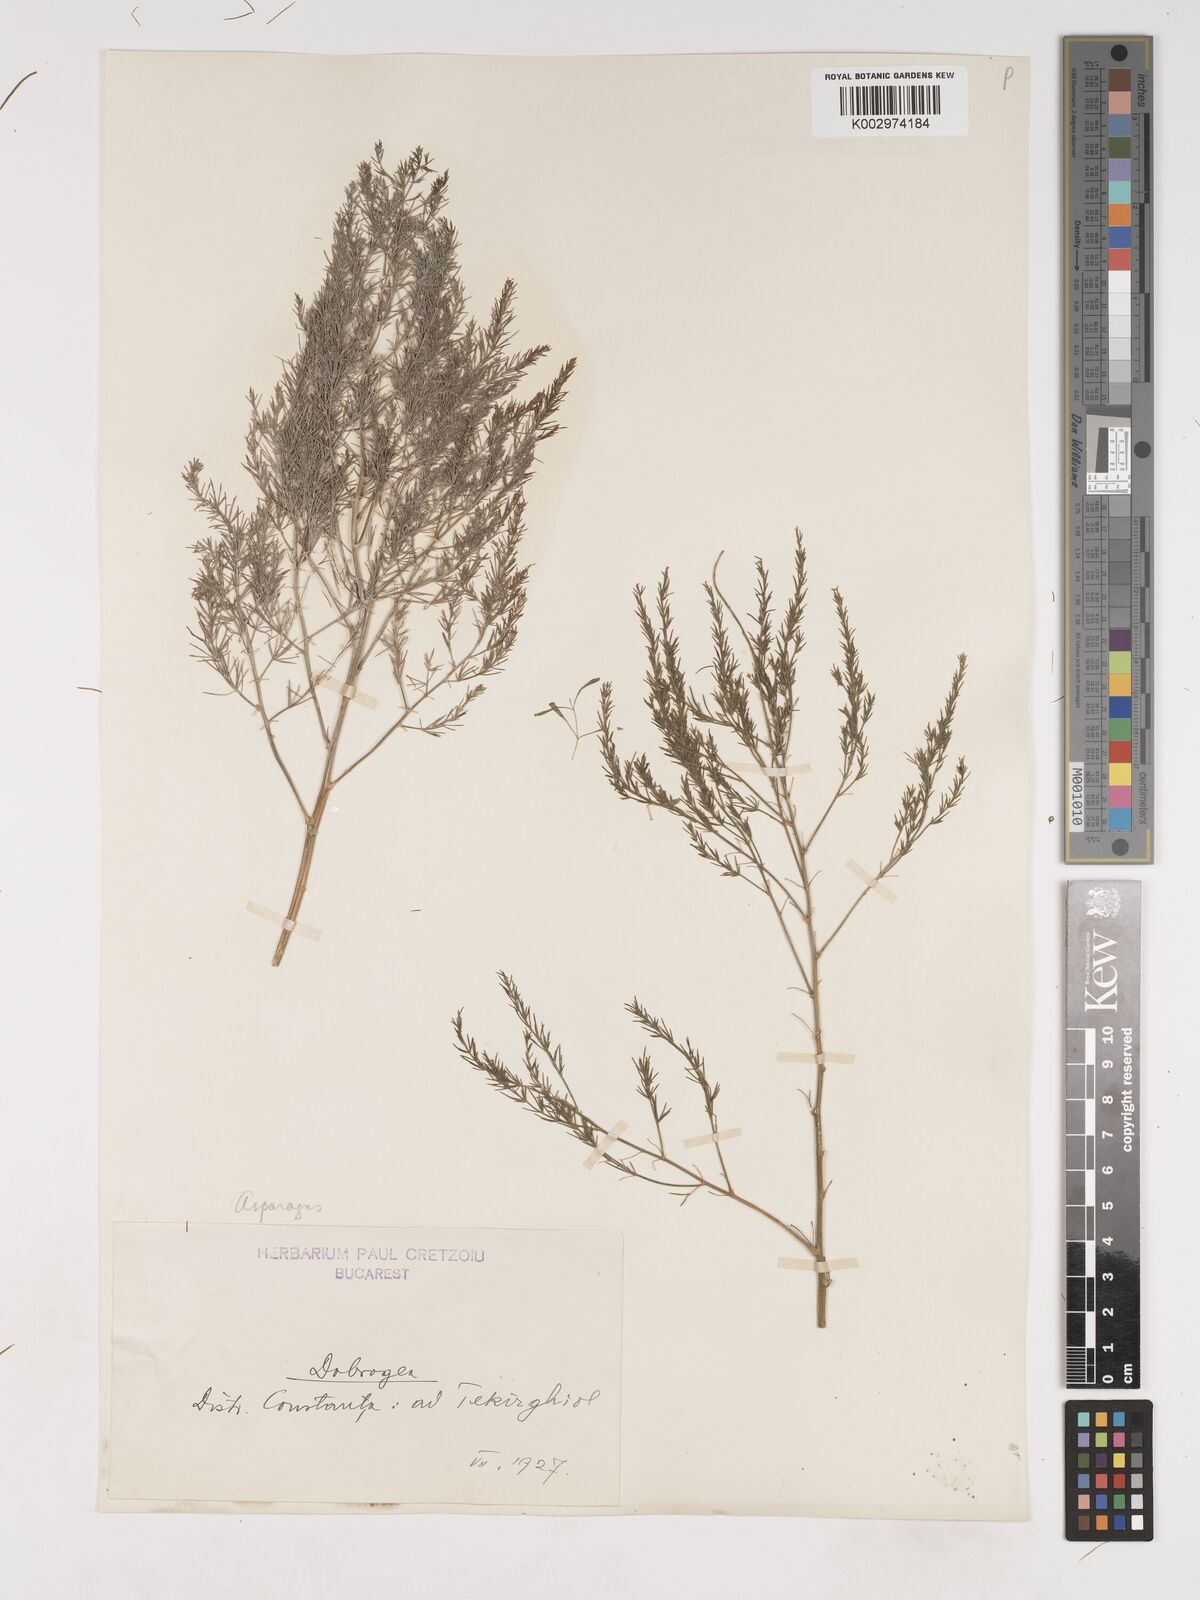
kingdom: Plantae
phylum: Tracheophyta
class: Liliopsida
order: Asparagales
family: Asparagaceae
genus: Asparagus
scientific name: Asparagus
